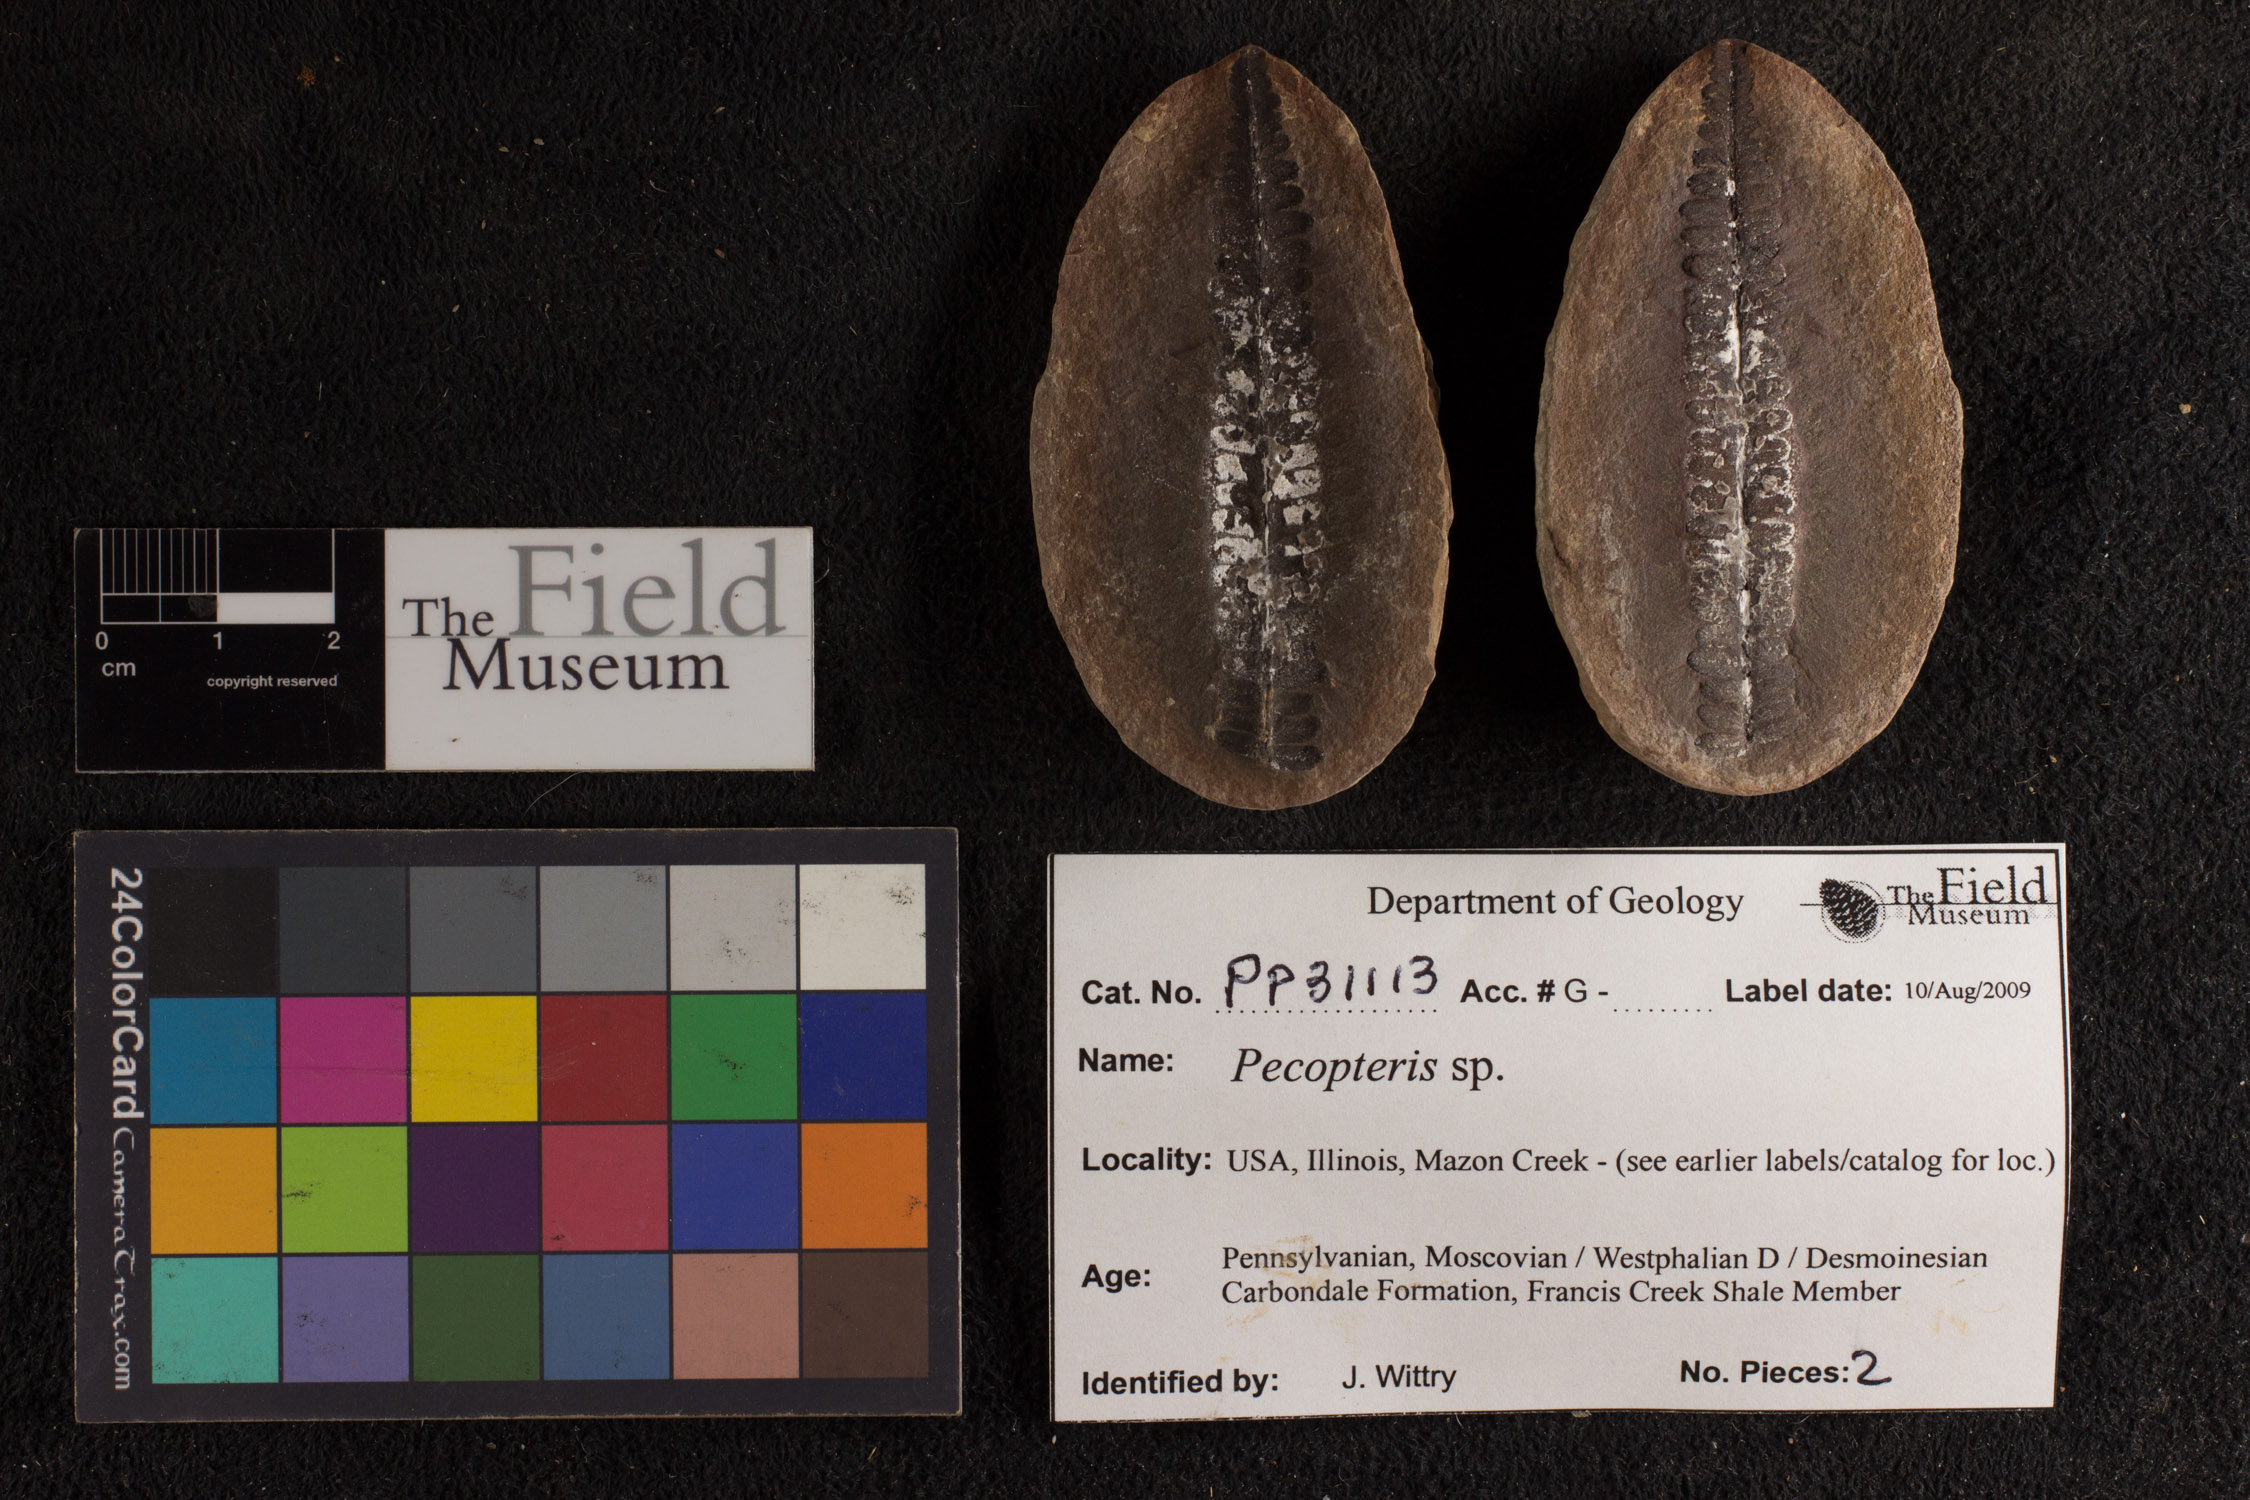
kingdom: Plantae
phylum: Tracheophyta
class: Polypodiopsida
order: Marattiales
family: Asterothecaceae
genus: Pecopteris
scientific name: Pecopteris
